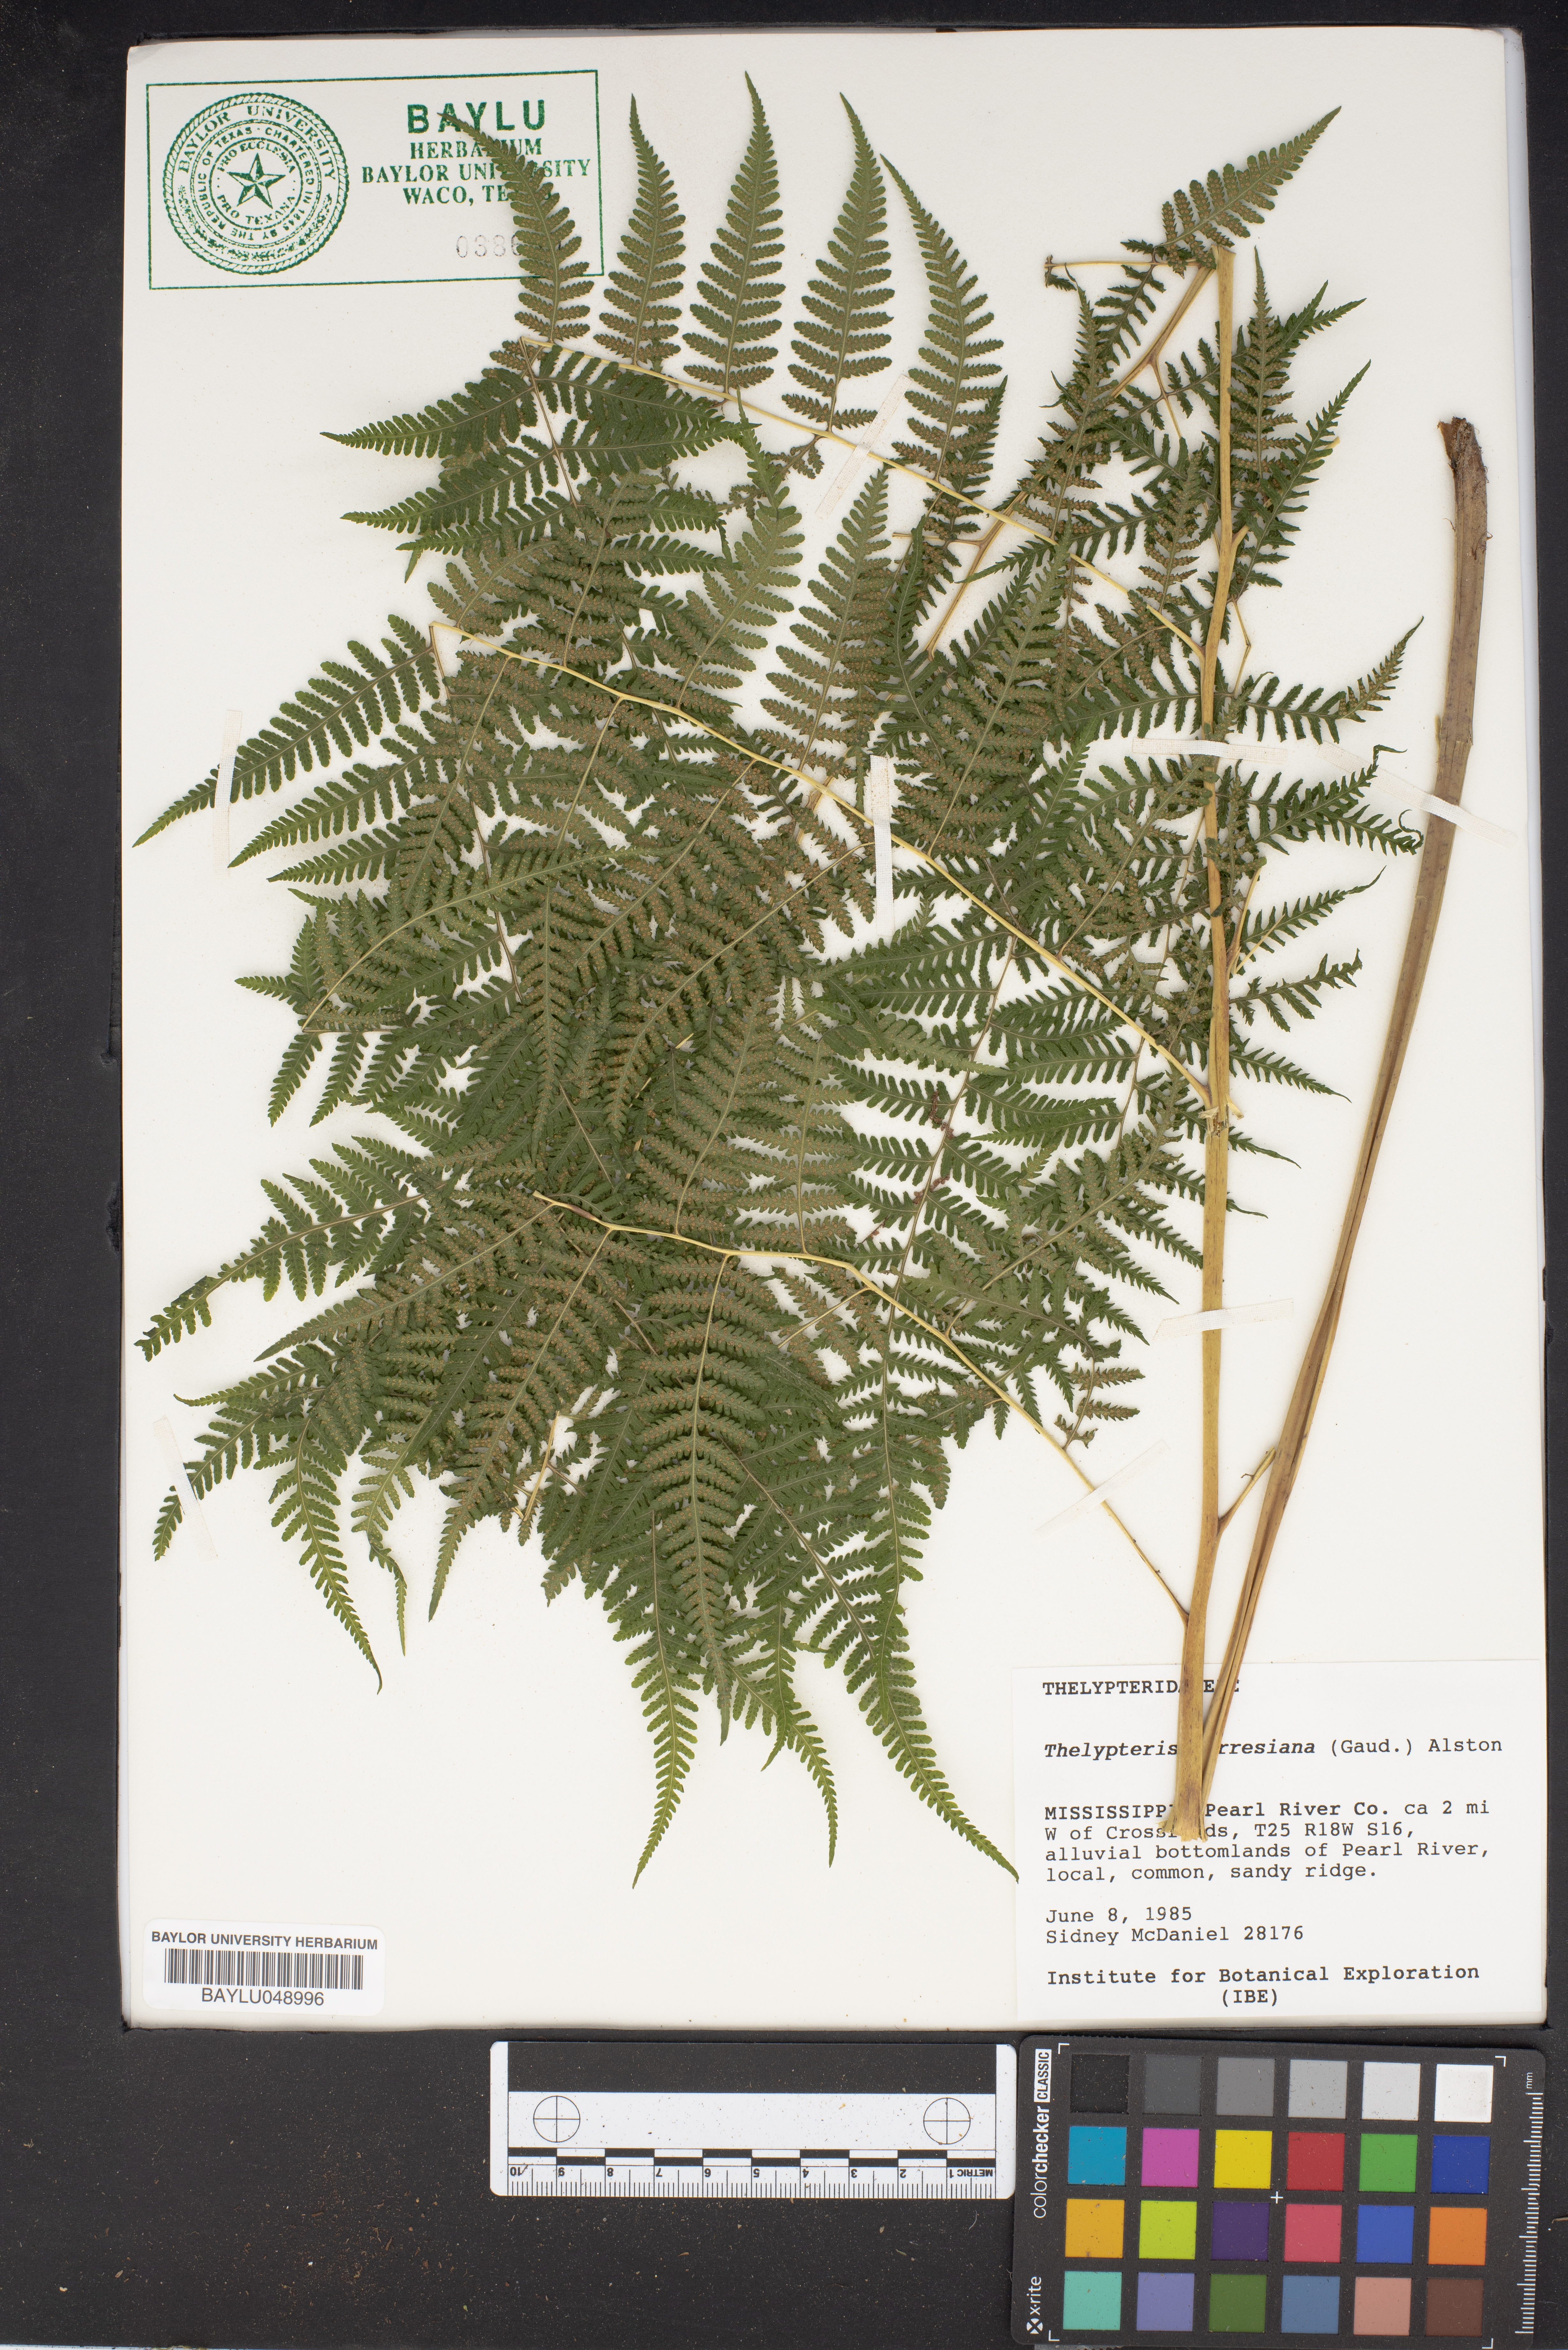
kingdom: Plantae
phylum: Tracheophyta
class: Polypodiopsida
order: Polypodiales
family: Thelypteridaceae
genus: Macrothelypteris
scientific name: Macrothelypteris torresiana
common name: Swordfern
